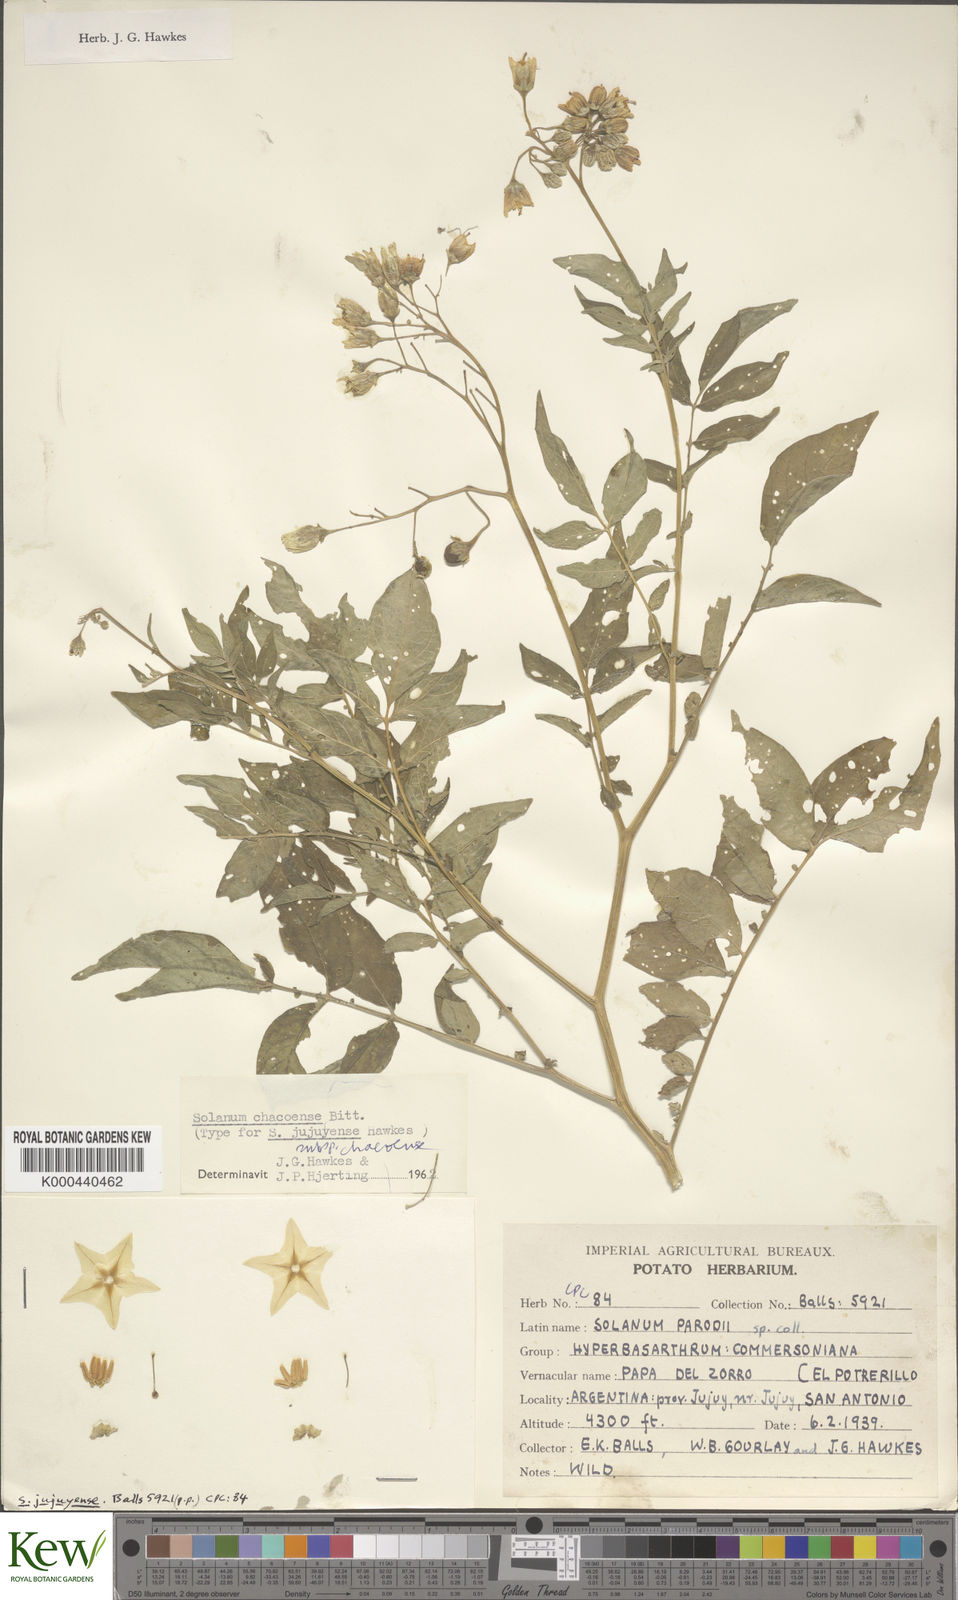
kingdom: Plantae
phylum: Tracheophyta
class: Magnoliopsida
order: Solanales
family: Solanaceae
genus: Solanum
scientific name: Solanum chacoense
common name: Chaco potato
